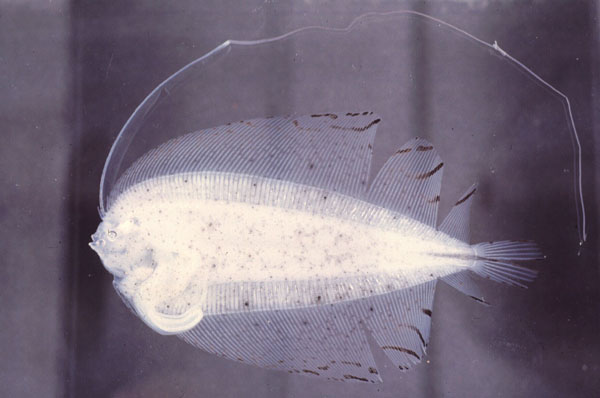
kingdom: Animalia
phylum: Chordata
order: Pleuronectiformes
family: Bothidae
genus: Laeops
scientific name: Laeops nigromaculatus
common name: Blackspotted flounder
